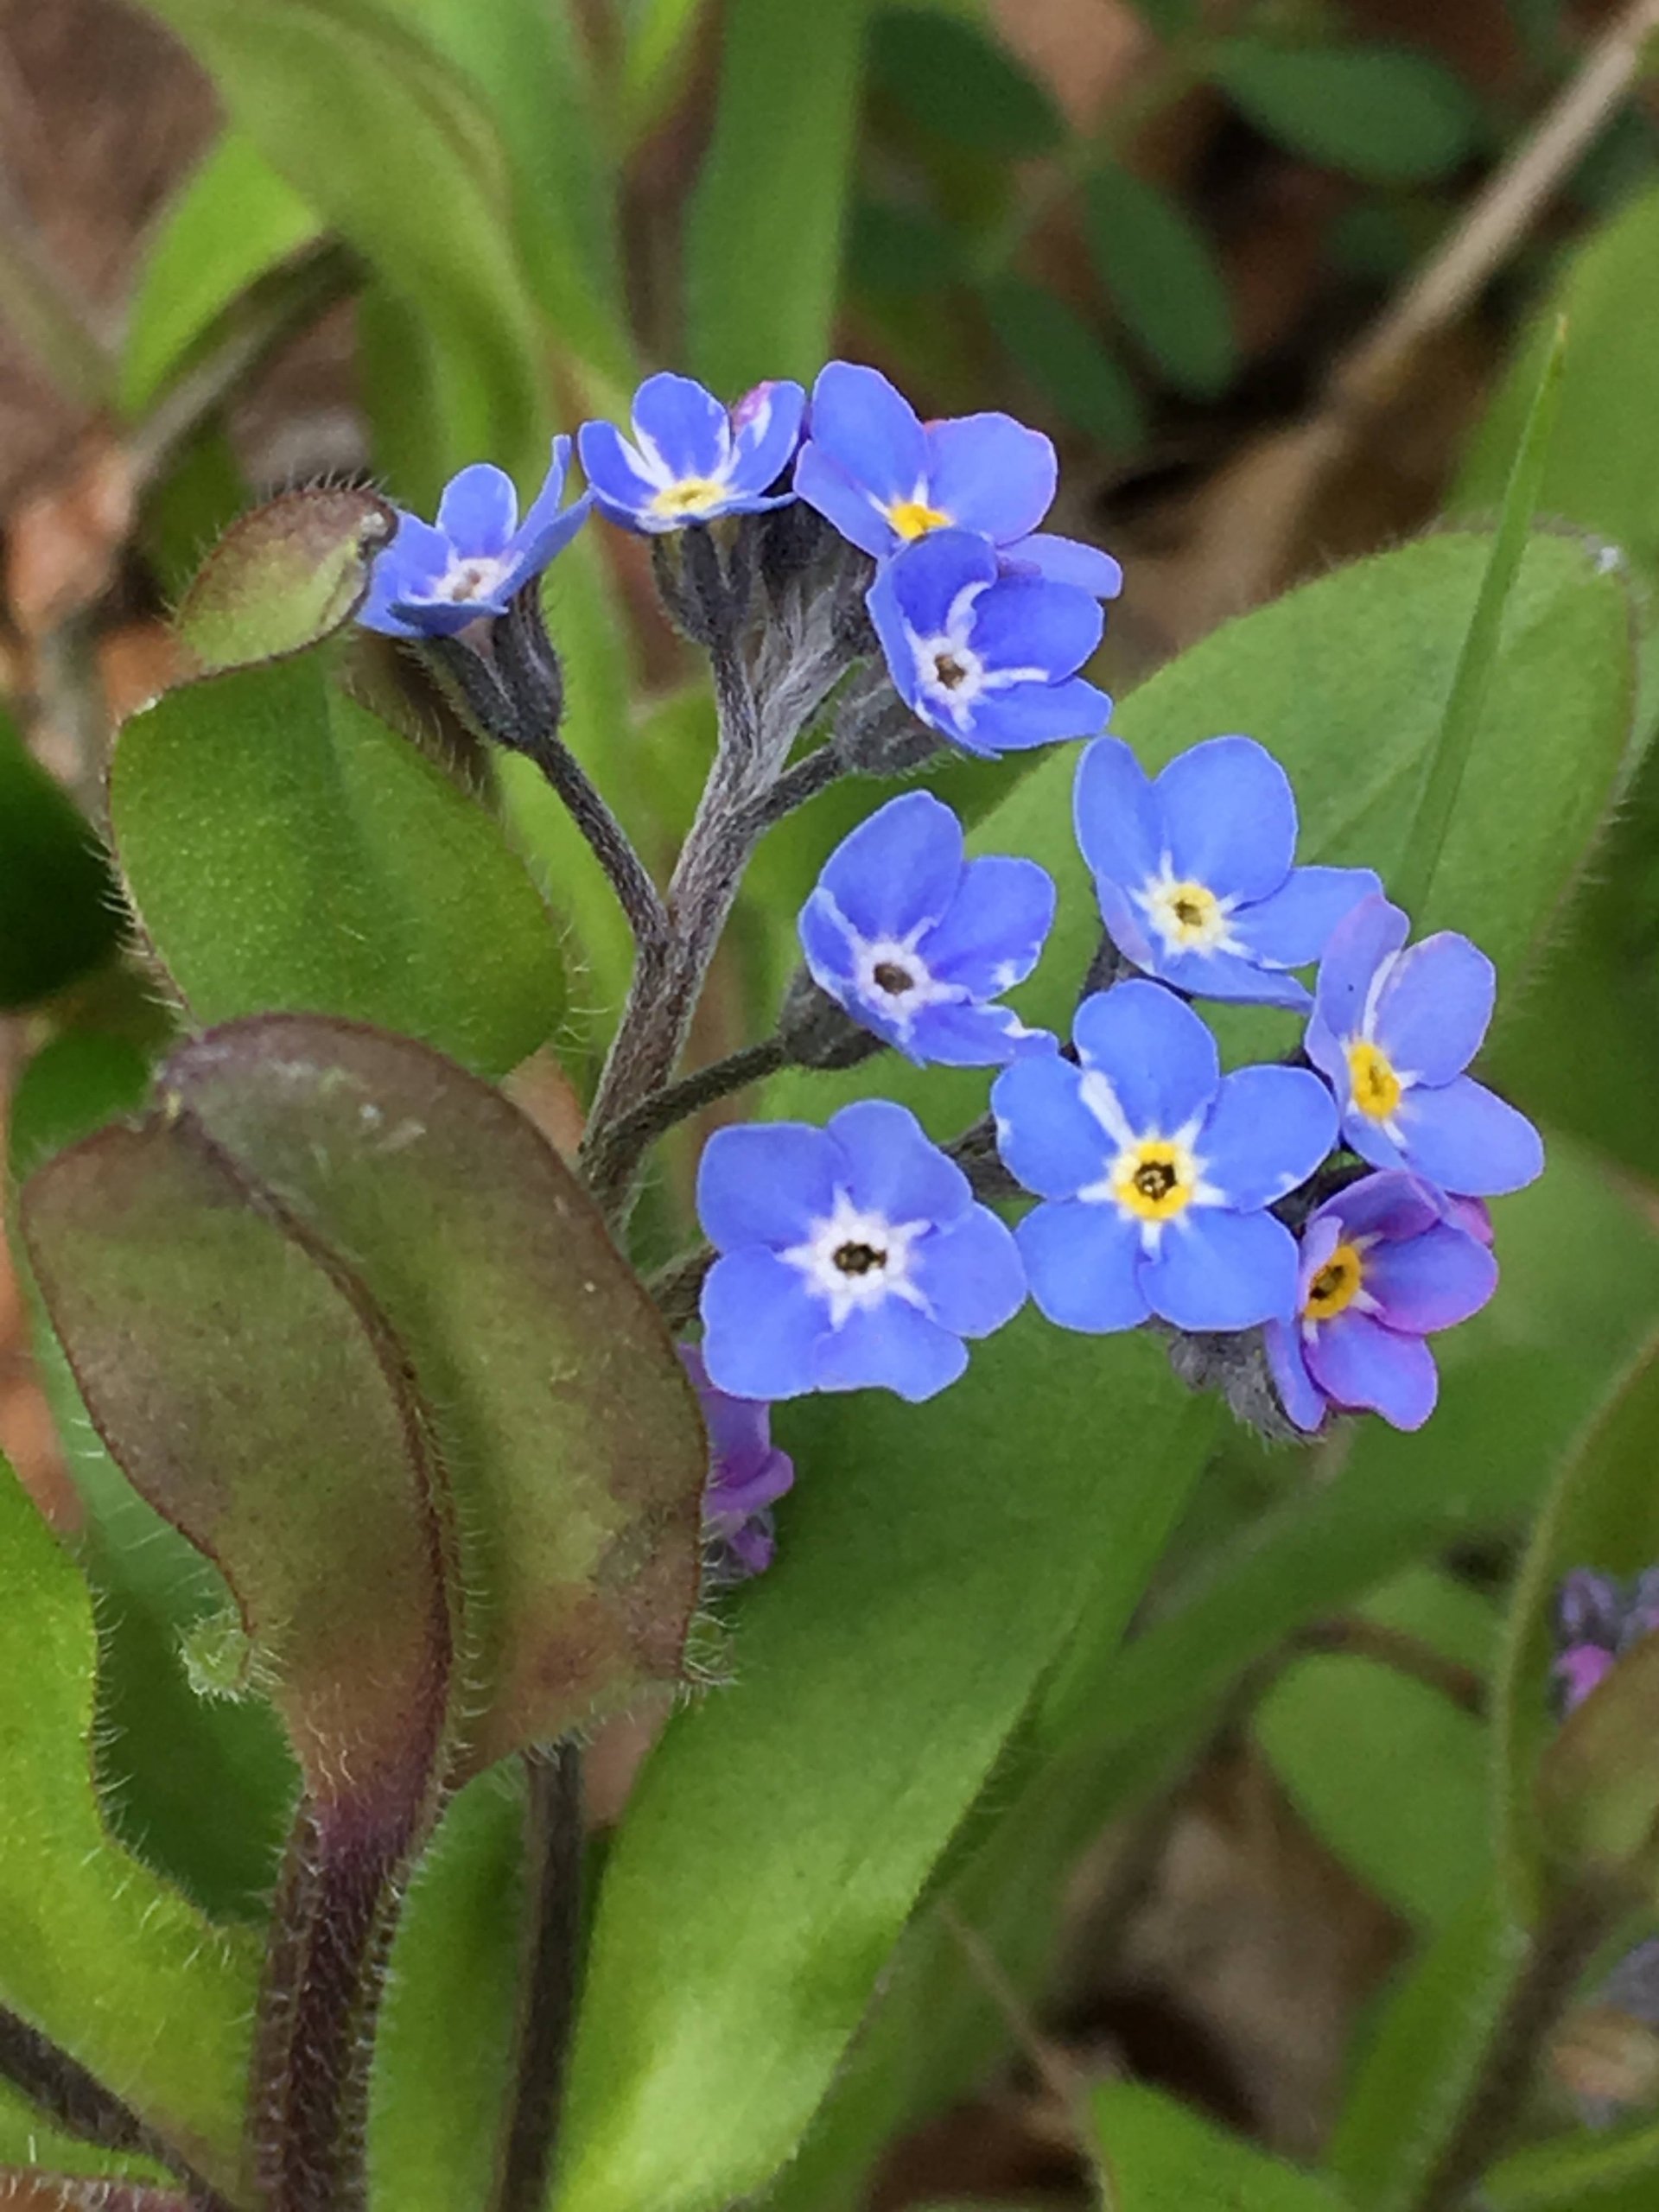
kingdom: Plantae
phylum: Tracheophyta
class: Magnoliopsida
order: Boraginales
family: Boraginaceae
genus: Myosotis
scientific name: Myosotis sylvatica
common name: Skov-forglemmigej
